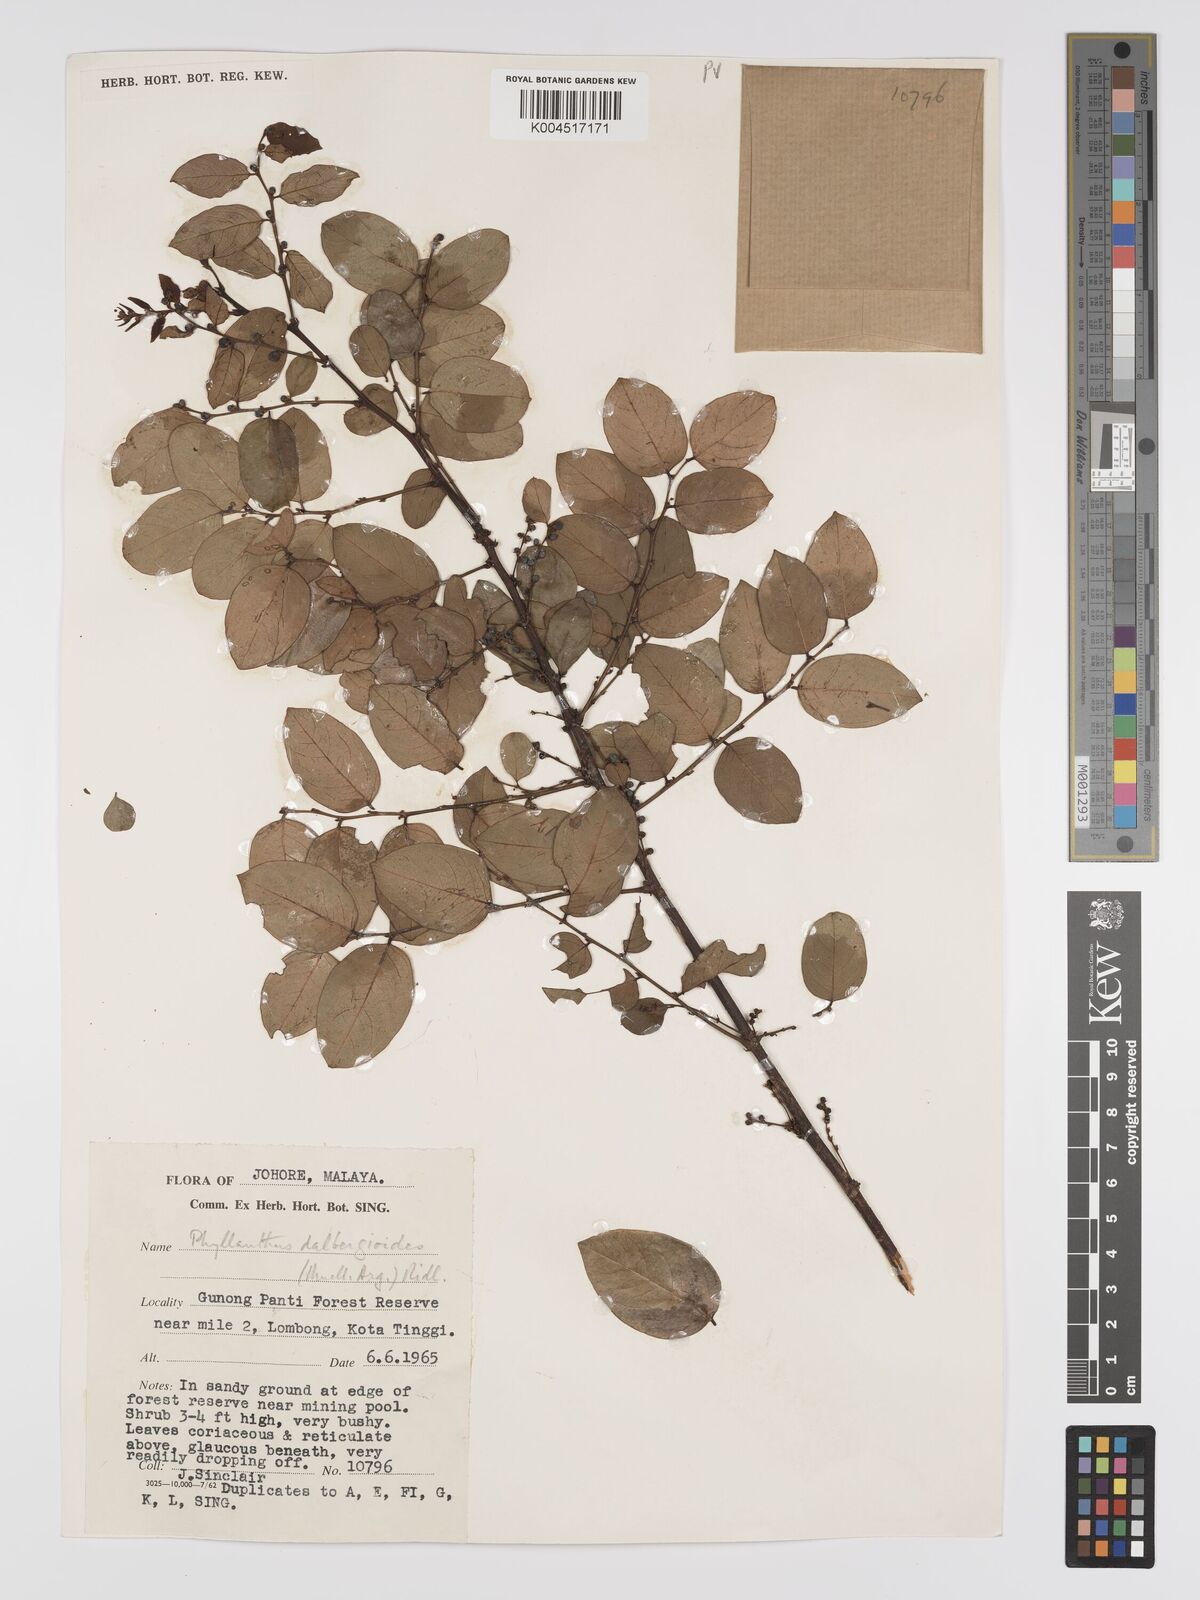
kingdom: Plantae
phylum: Tracheophyta
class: Magnoliopsida
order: Malpighiales
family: Phyllanthaceae
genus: Phyllanthus
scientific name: Phyllanthus microcarpus
